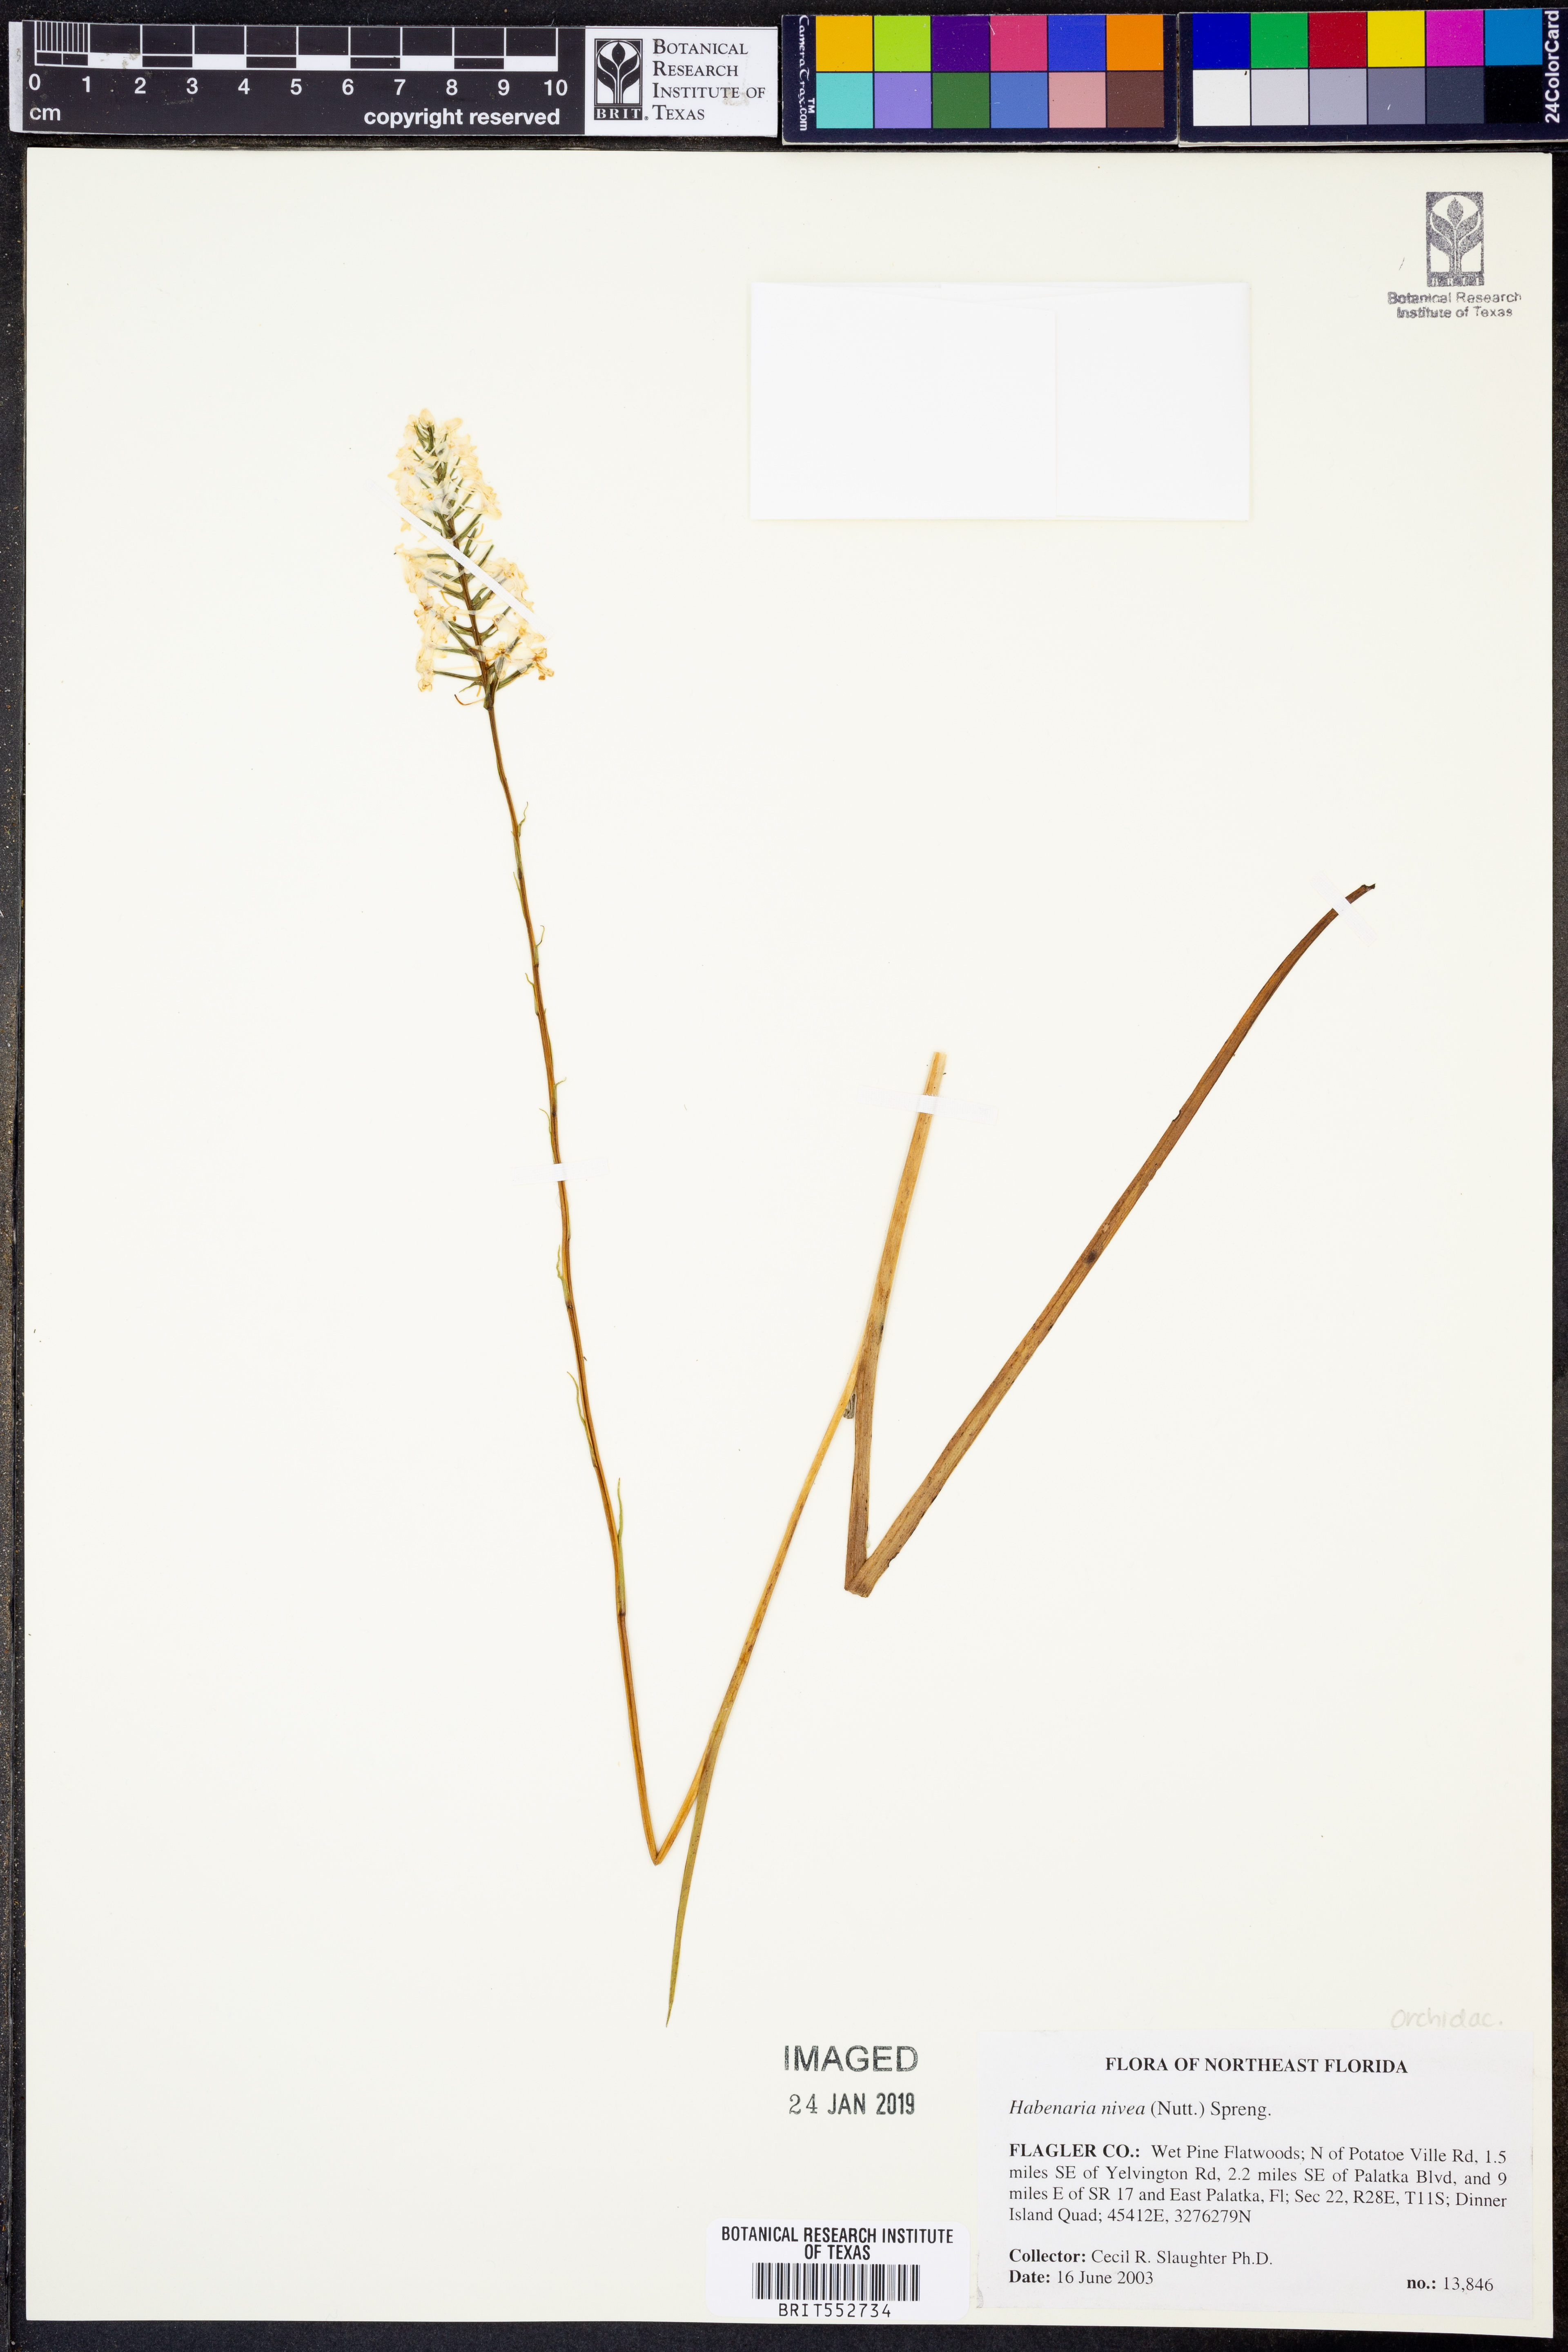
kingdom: Plantae
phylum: Tracheophyta
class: Liliopsida
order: Asparagales
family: Orchidaceae
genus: Platanthera
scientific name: Platanthera nivea
